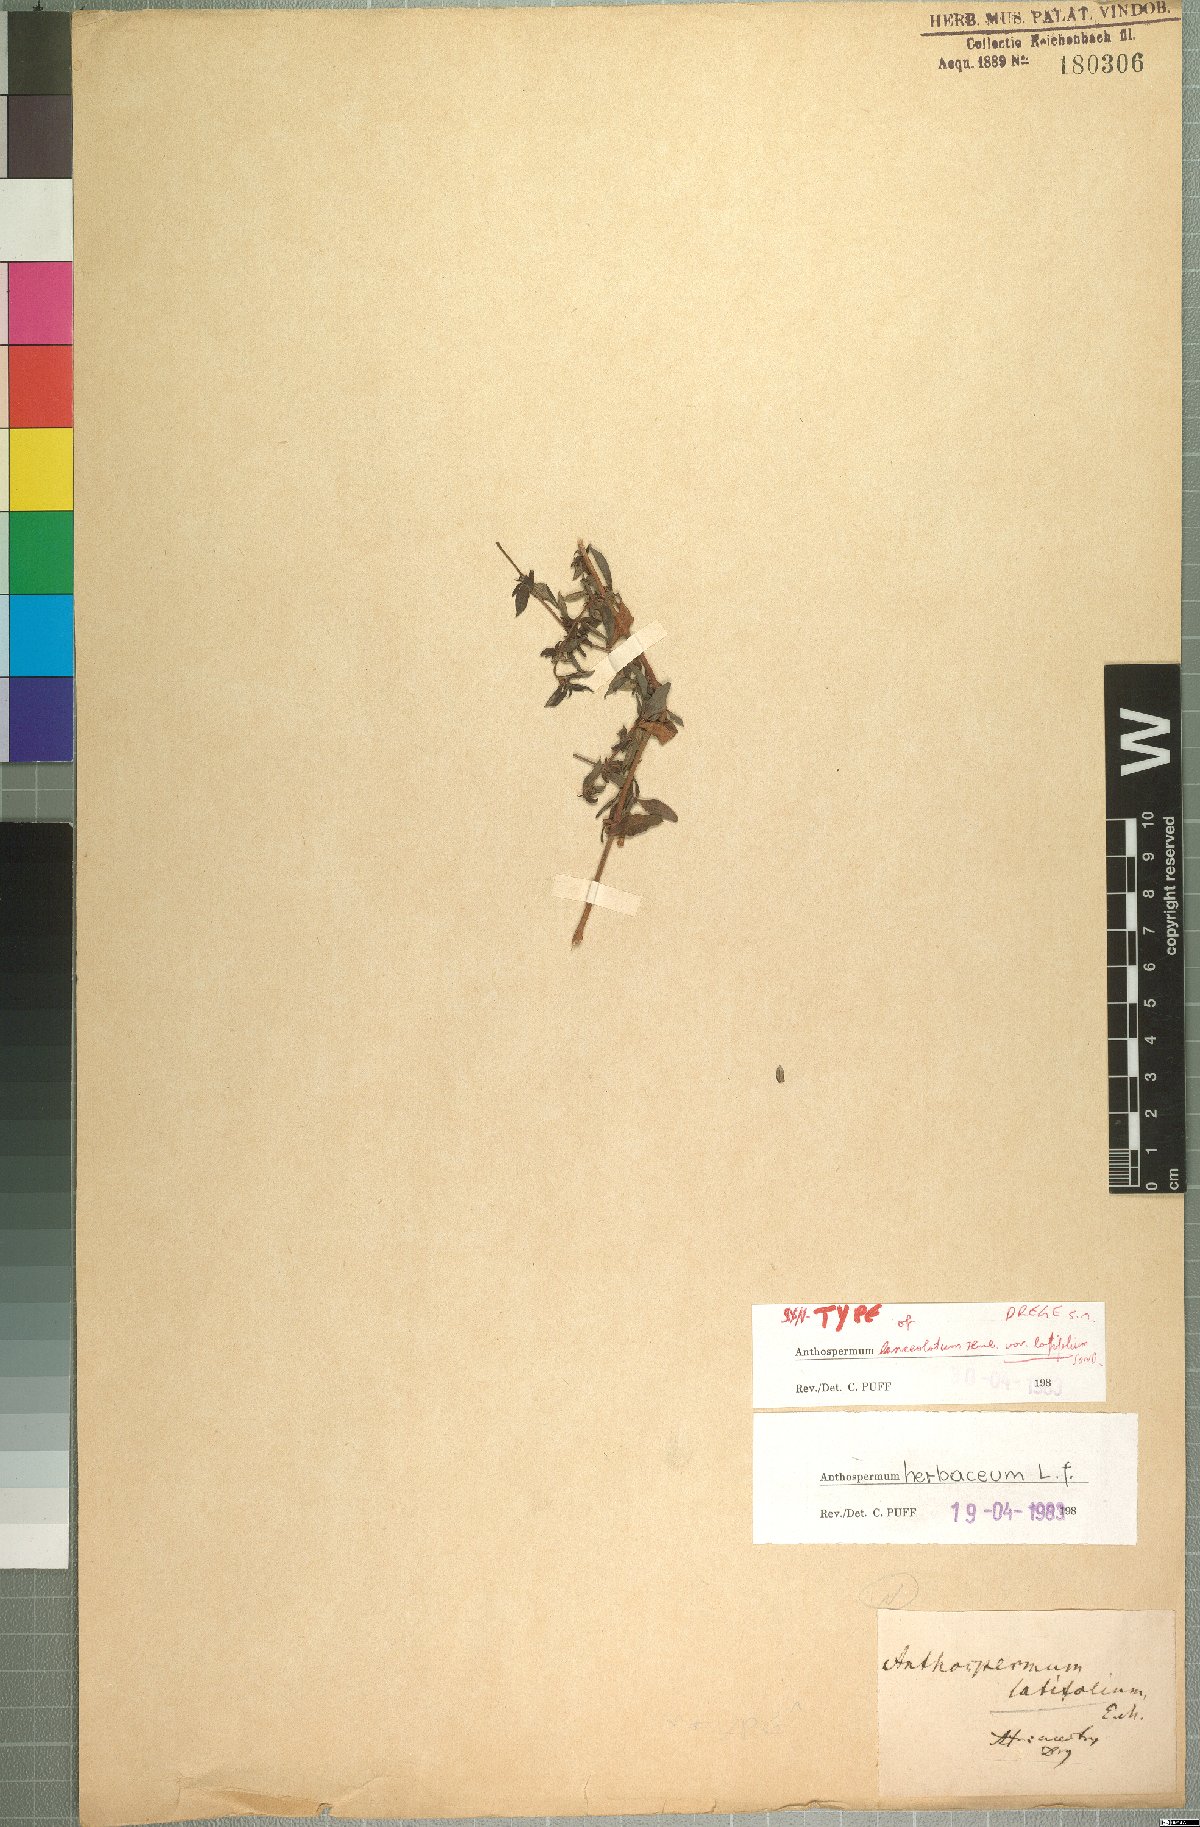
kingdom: Plantae
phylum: Tracheophyta
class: Magnoliopsida
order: Gentianales
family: Rubiaceae
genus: Anthospermum
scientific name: Anthospermum herbaceum
